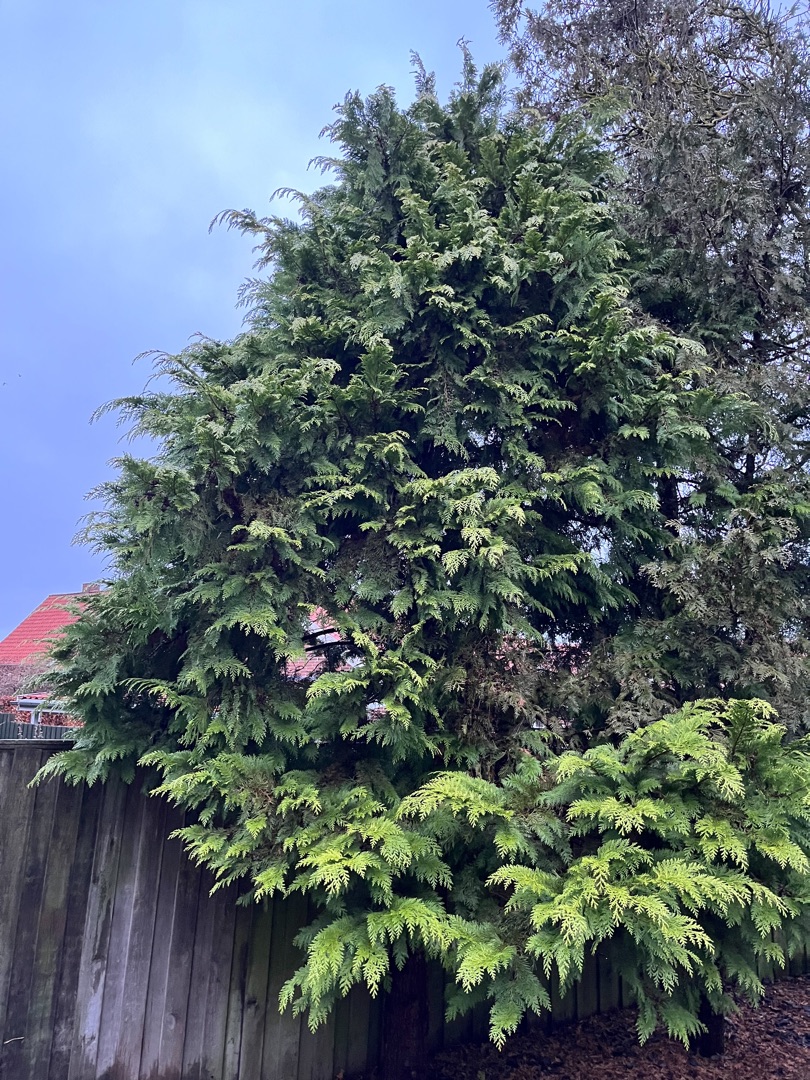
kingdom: Plantae
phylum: Tracheophyta
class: Pinopsida
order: Pinales
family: Cupressaceae
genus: Chamaecyparis
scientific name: Chamaecyparis lawsoniana
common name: Ædelcypres
